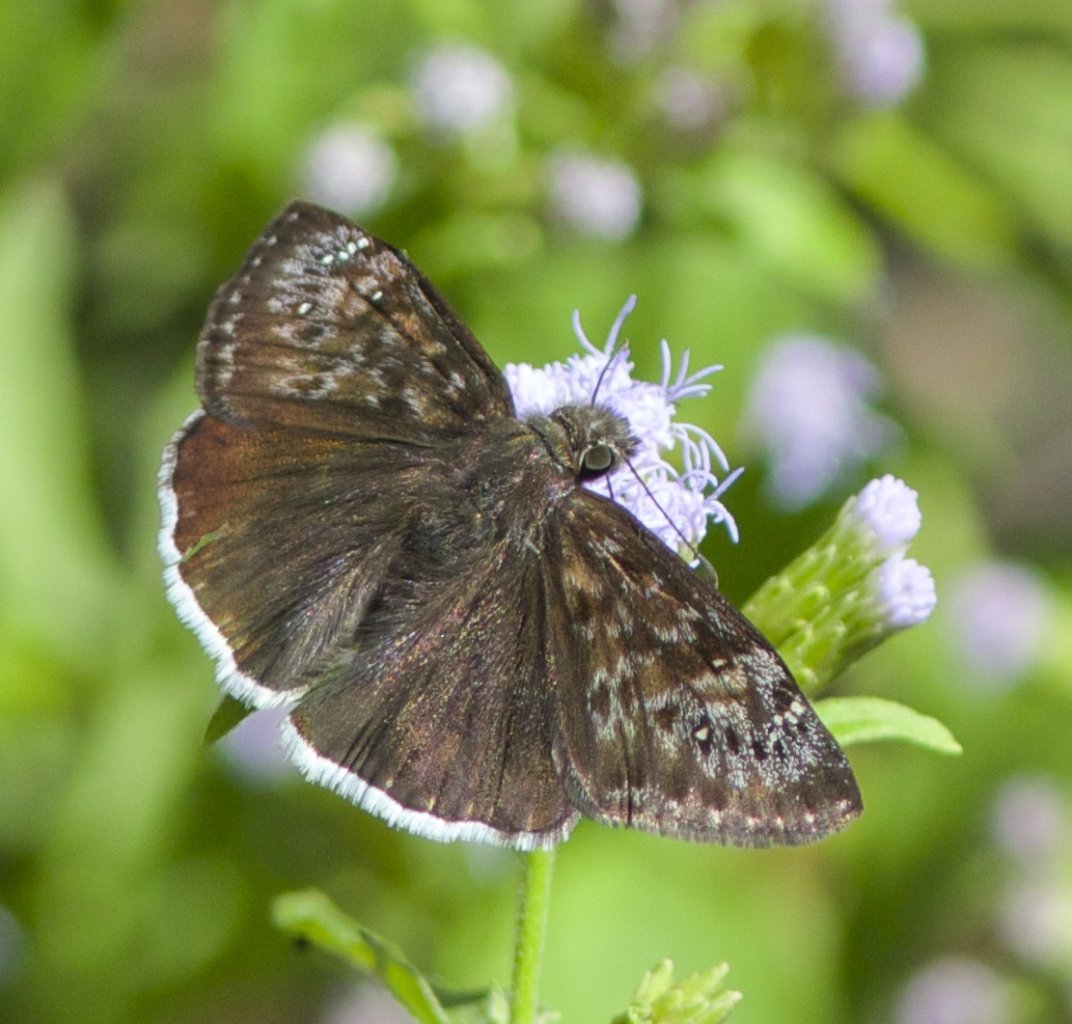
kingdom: Animalia
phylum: Arthropoda
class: Insecta
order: Lepidoptera
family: Hesperiidae
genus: Erynnis
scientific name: Erynnis tristis
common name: Mournful Duskywing
